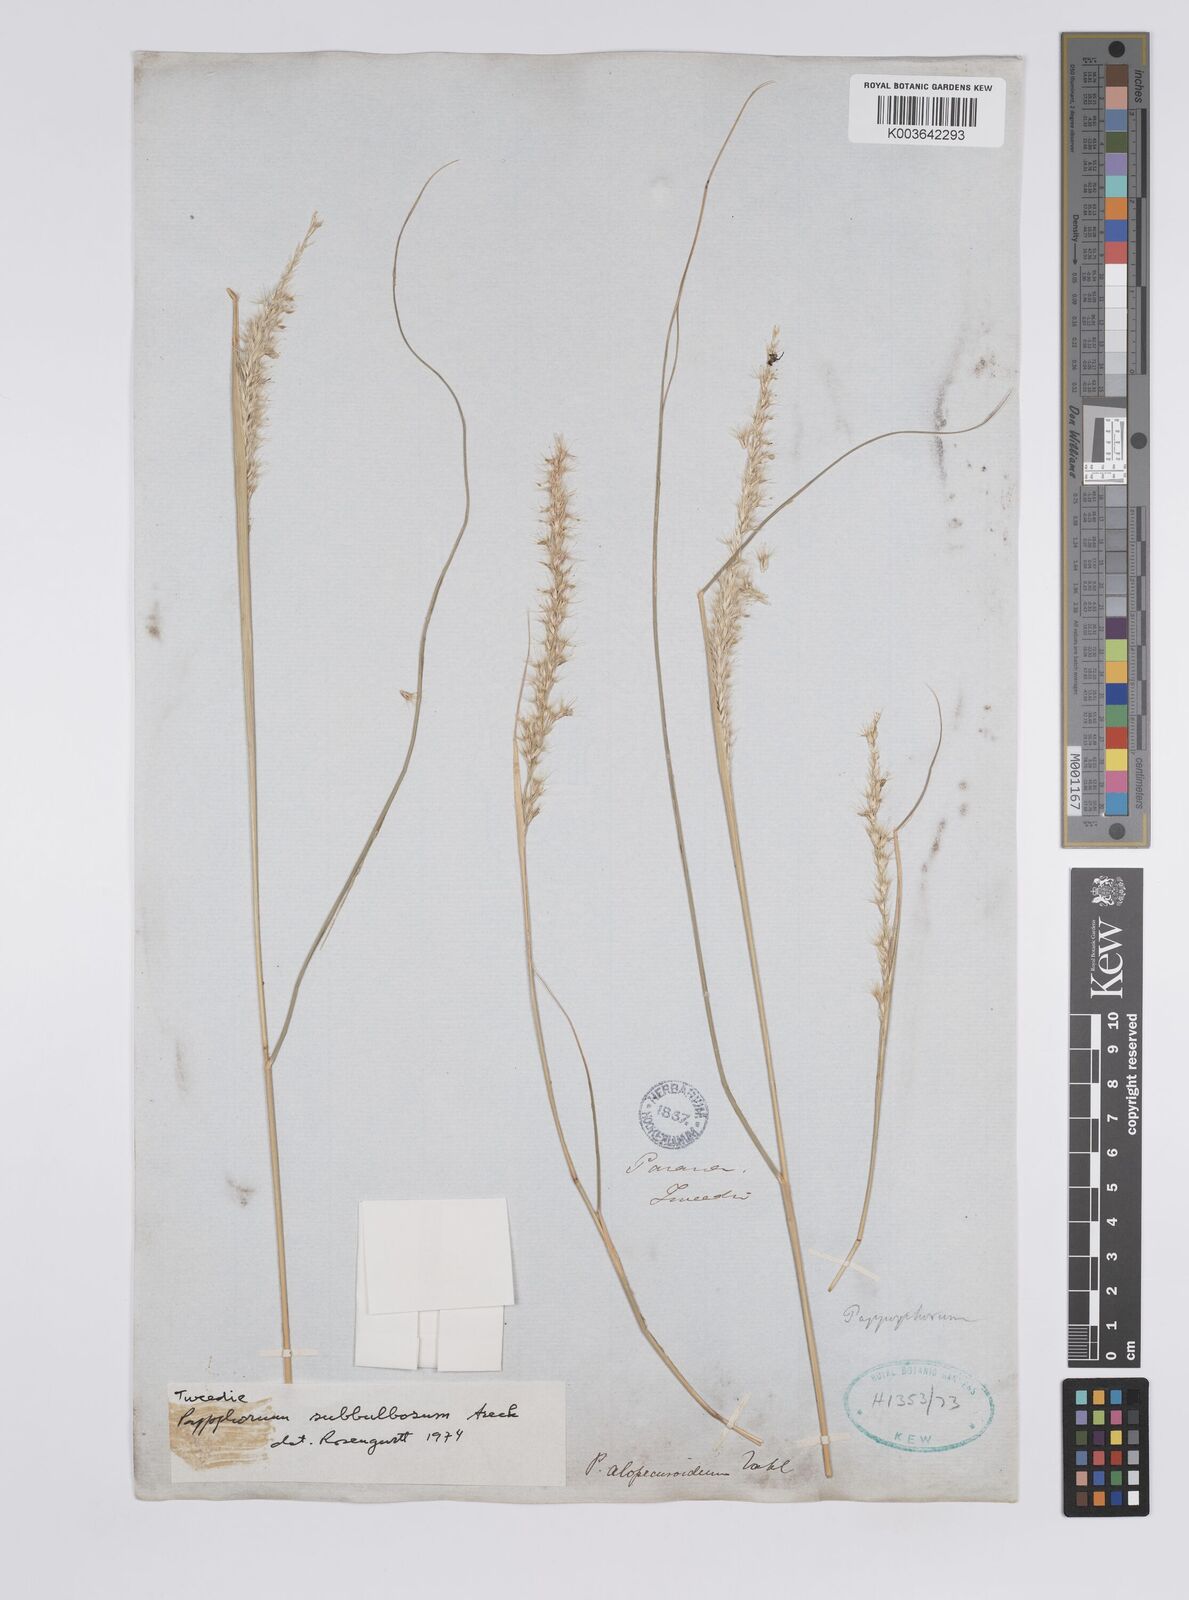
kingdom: Plantae
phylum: Tracheophyta
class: Liliopsida
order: Poales
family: Poaceae
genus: Pappophorum
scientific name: Pappophorum mucronulatum
